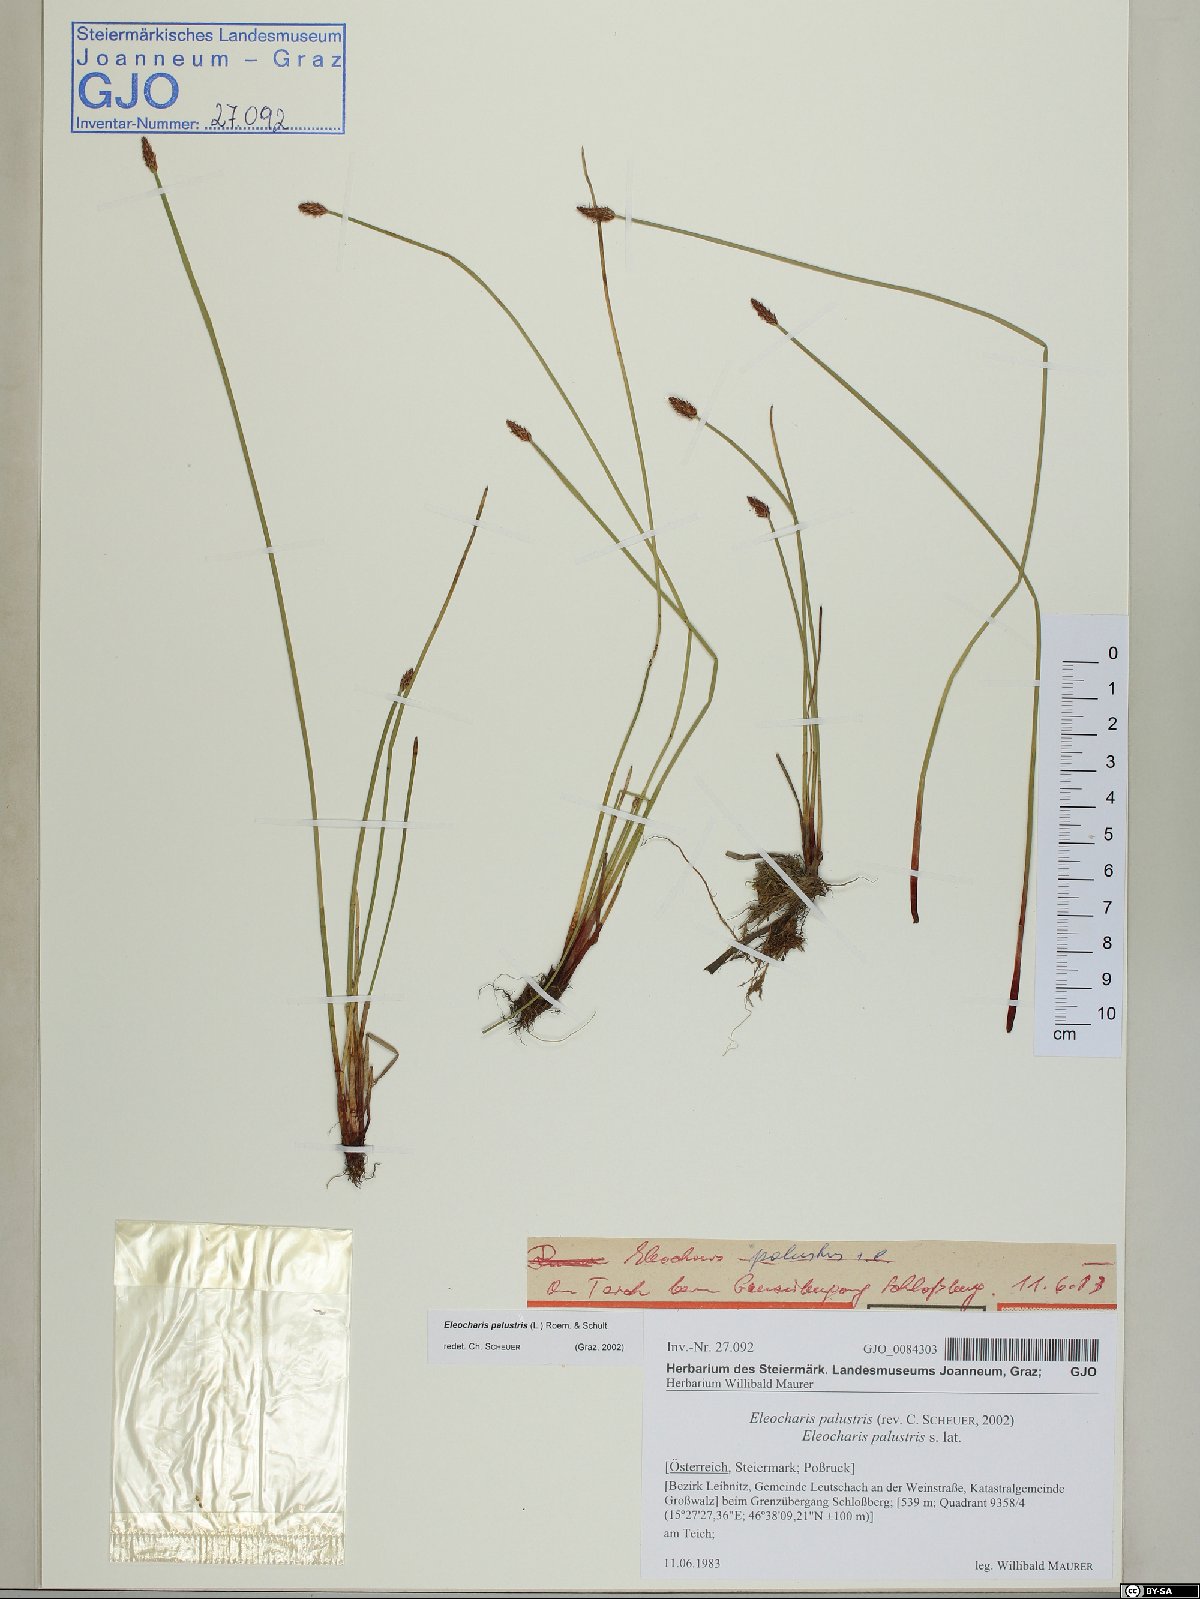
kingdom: Plantae
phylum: Tracheophyta
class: Liliopsida
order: Poales
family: Cyperaceae
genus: Eleocharis
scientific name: Eleocharis palustris
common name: Common spike-rush
